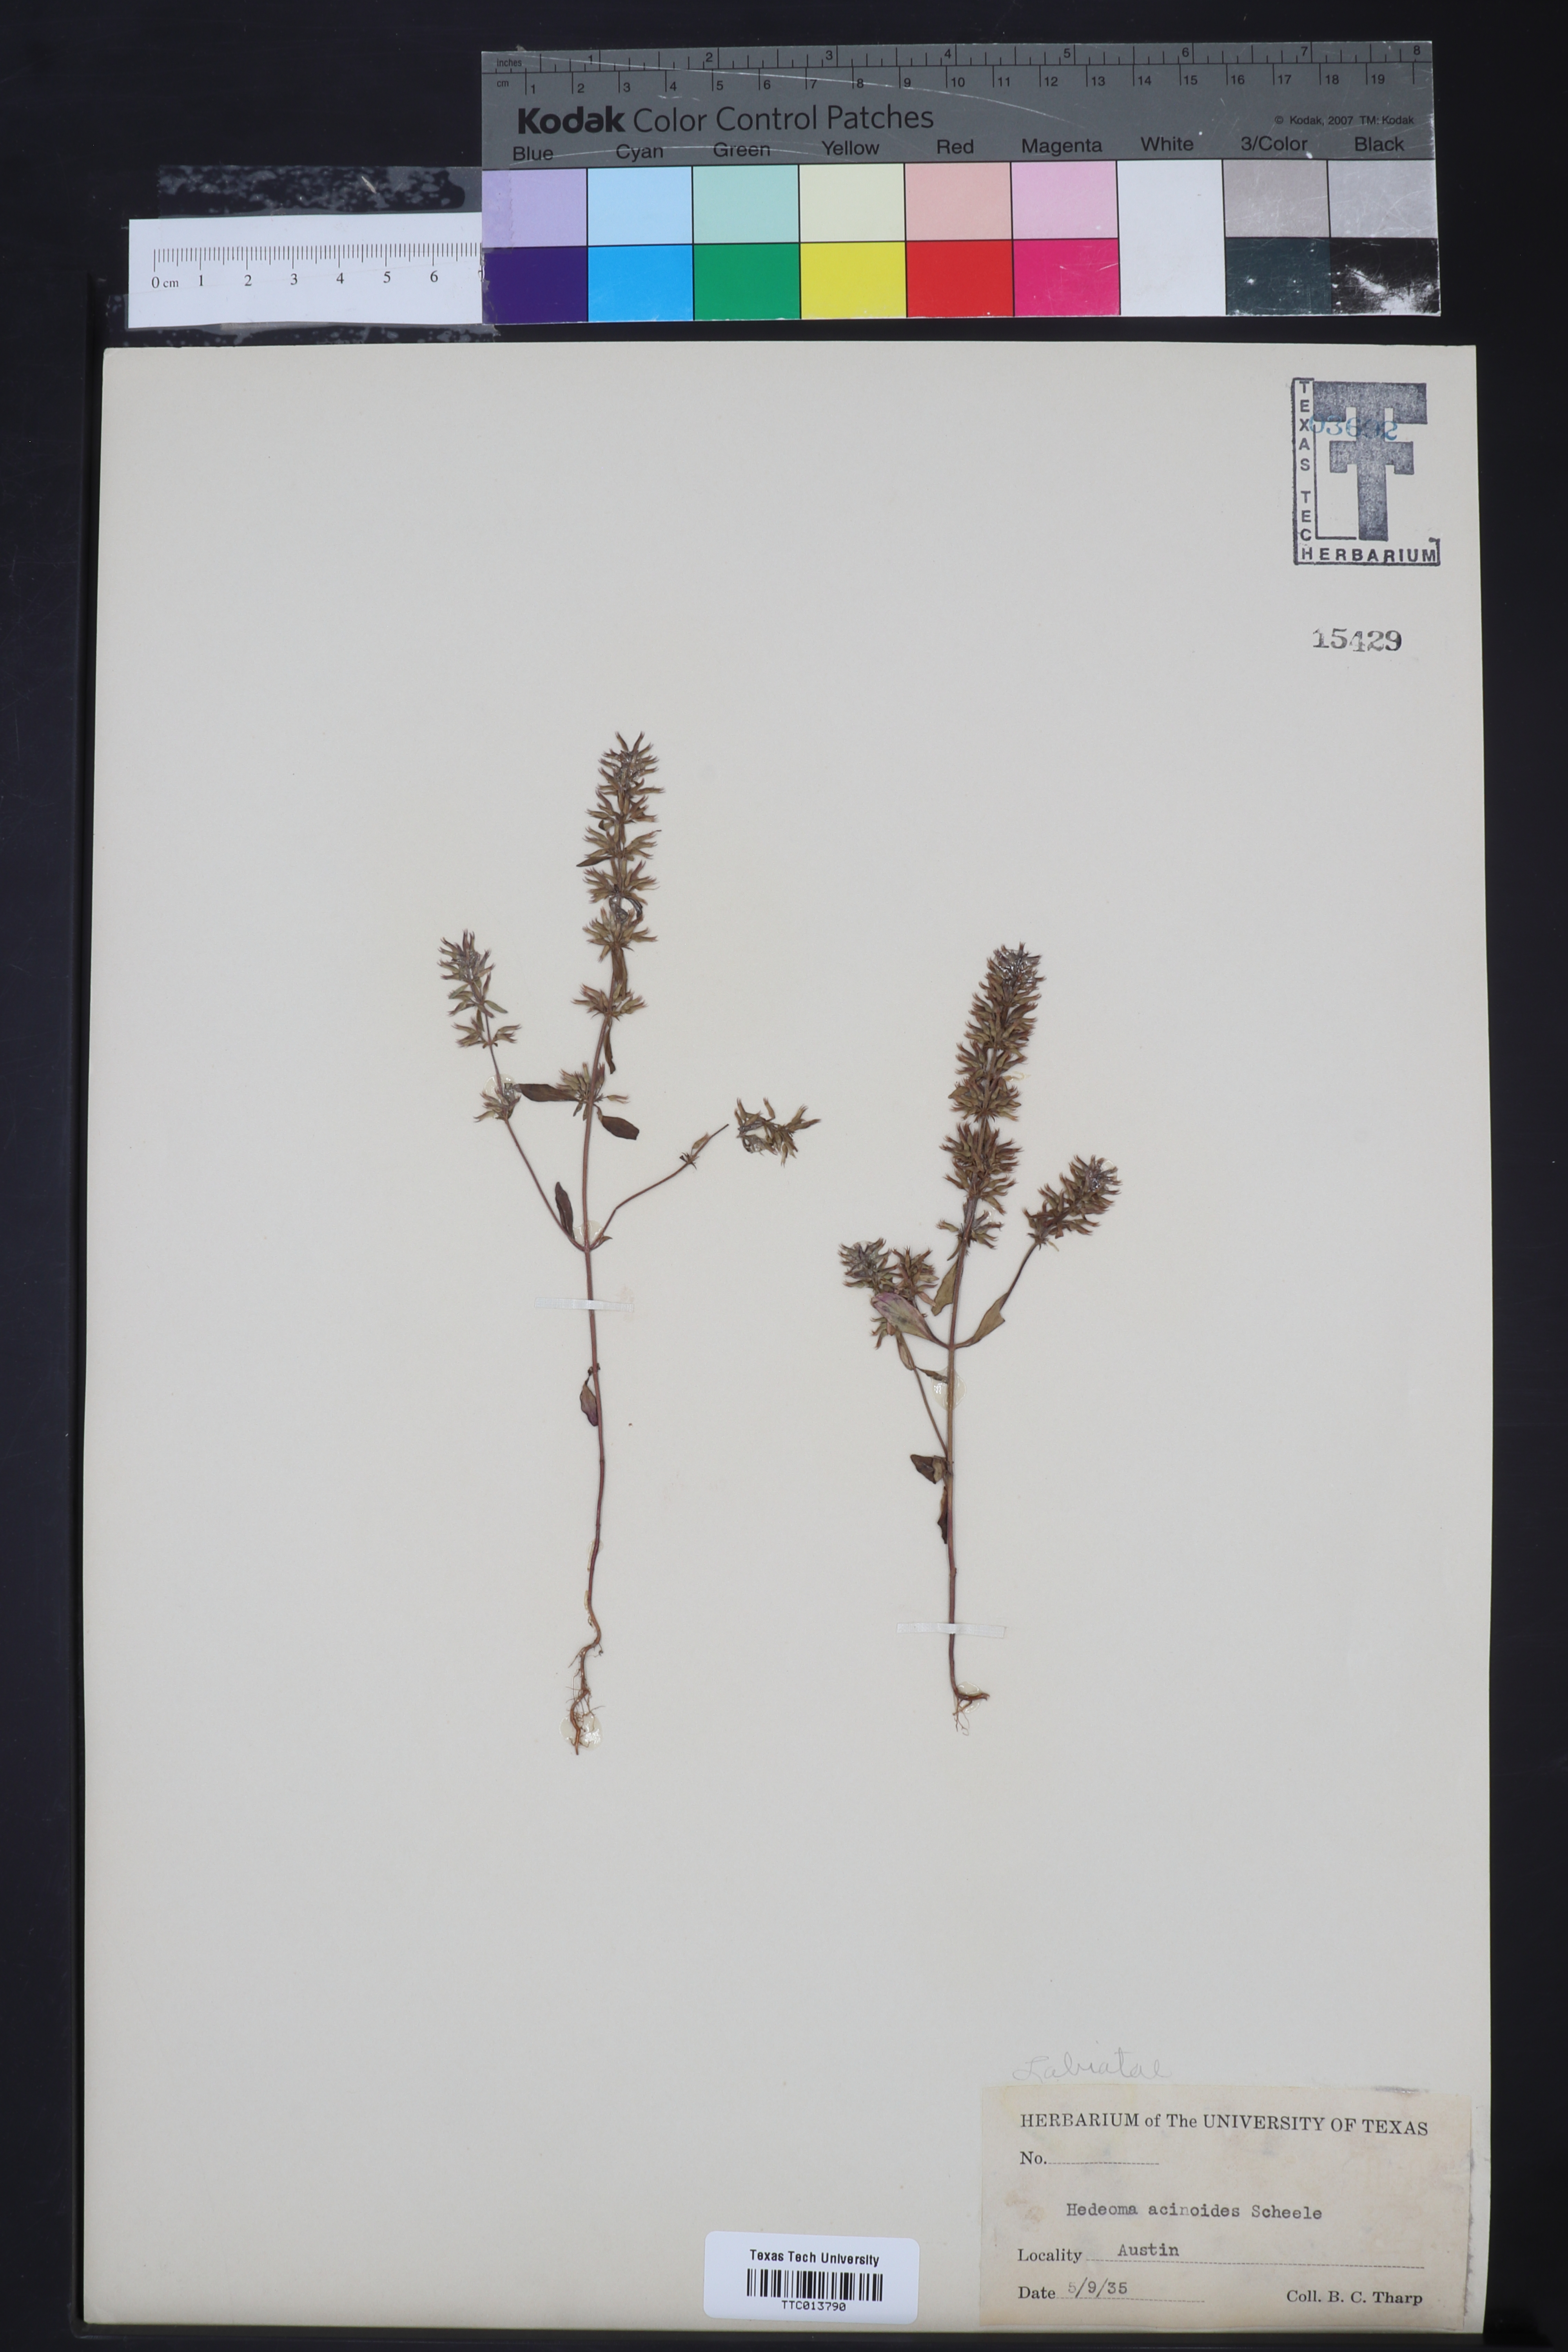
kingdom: Plantae
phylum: Tracheophyta
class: Magnoliopsida
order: Lamiales
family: Lamiaceae
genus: Hedeoma
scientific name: Hedeoma acinoides
